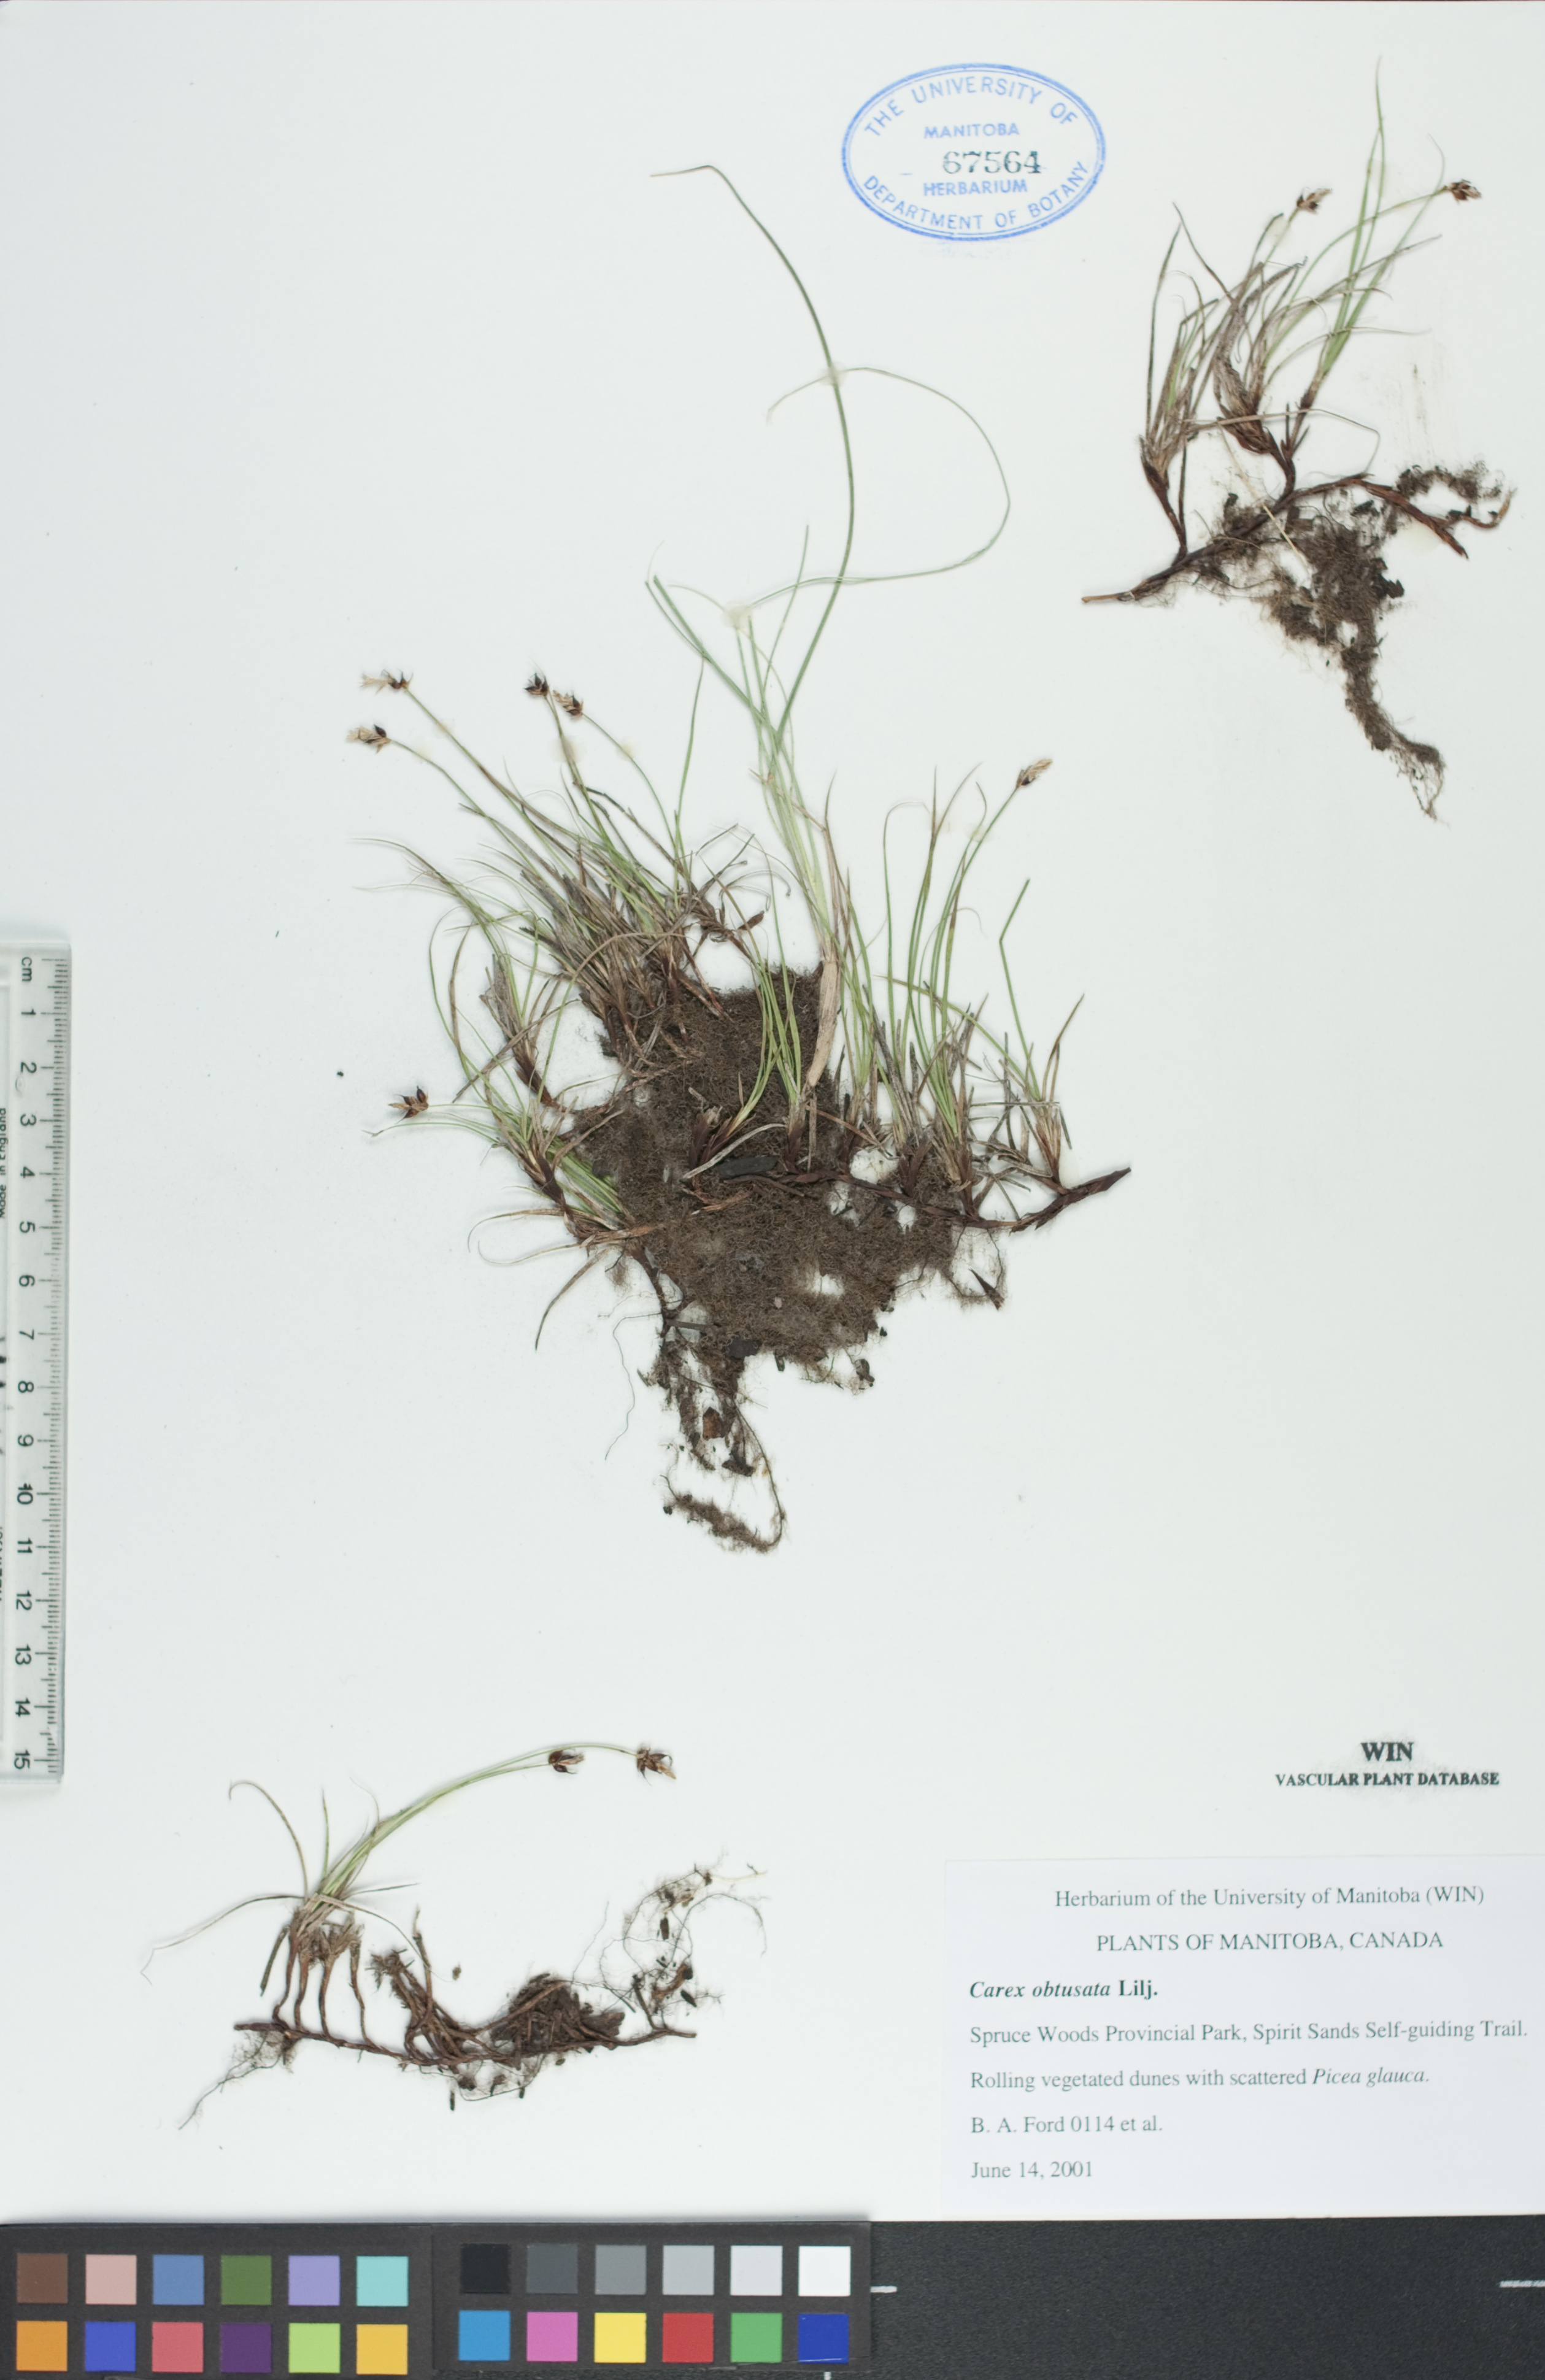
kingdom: Plantae
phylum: Tracheophyta
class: Liliopsida
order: Poales
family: Cyperaceae
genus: Carex
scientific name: Carex obtusata
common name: Blunt sedge
